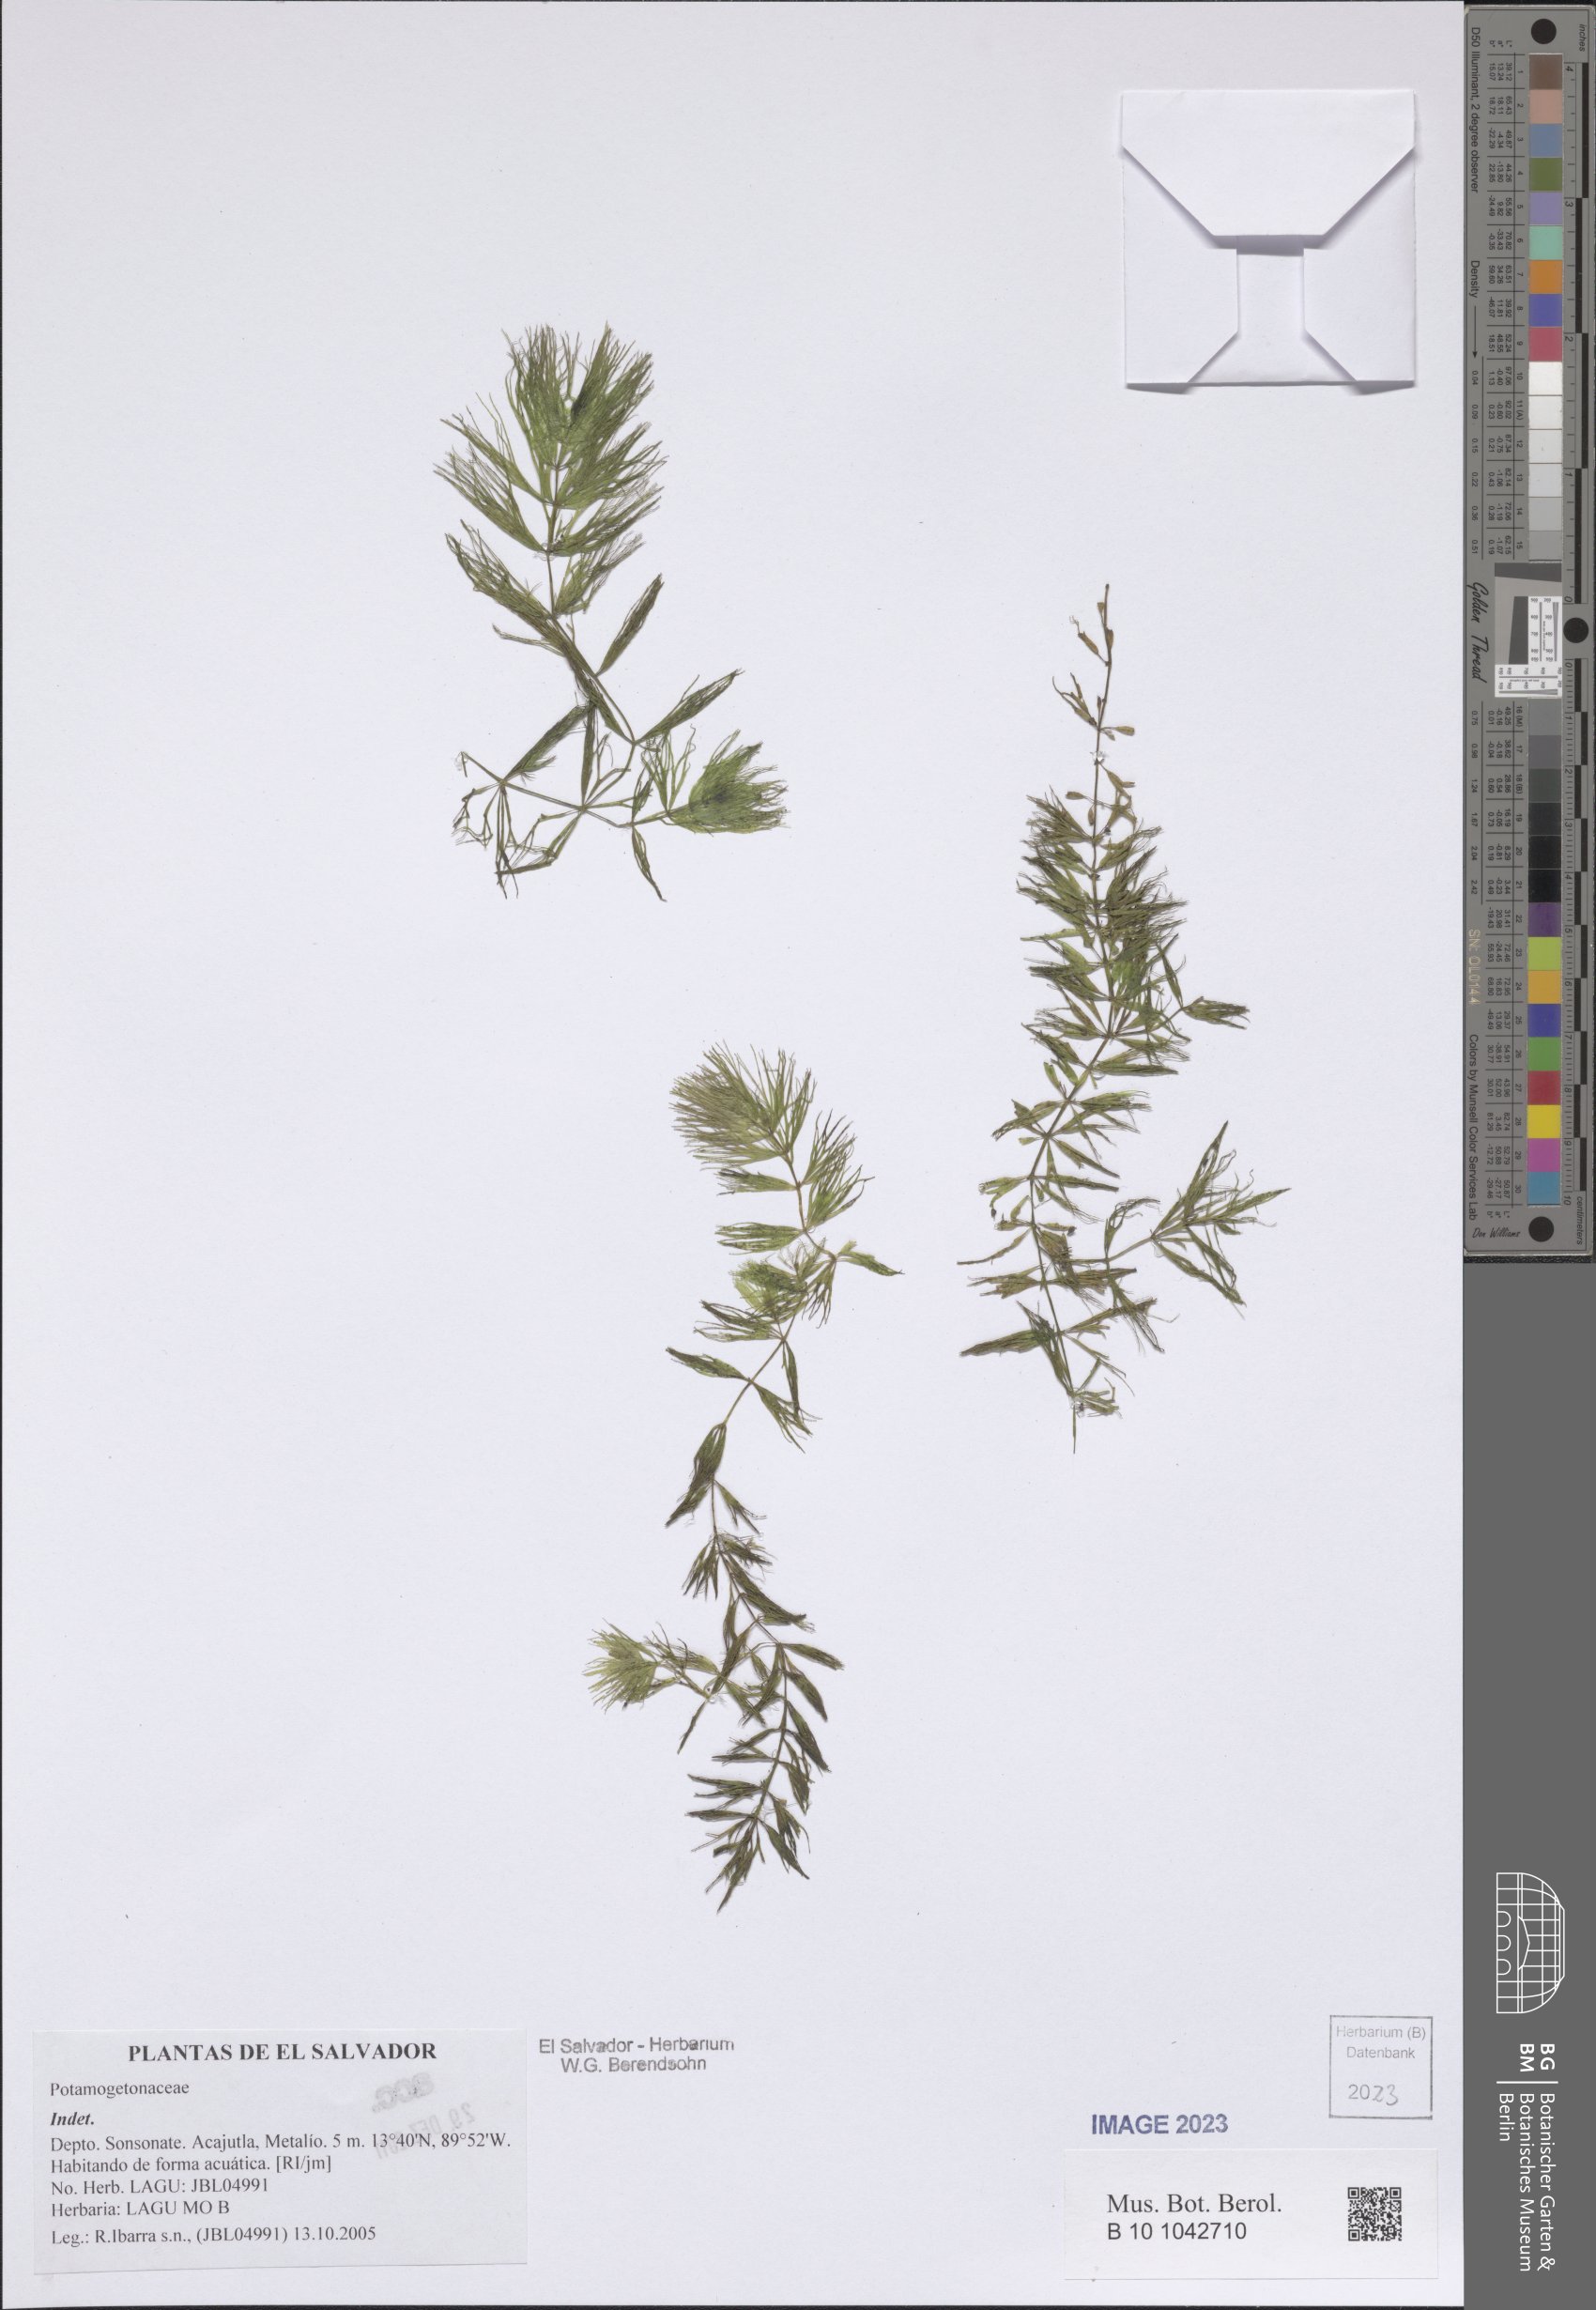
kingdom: Plantae
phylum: Tracheophyta
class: Liliopsida
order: Alismatales
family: Potamogetonaceae
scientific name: Potamogetonaceae
